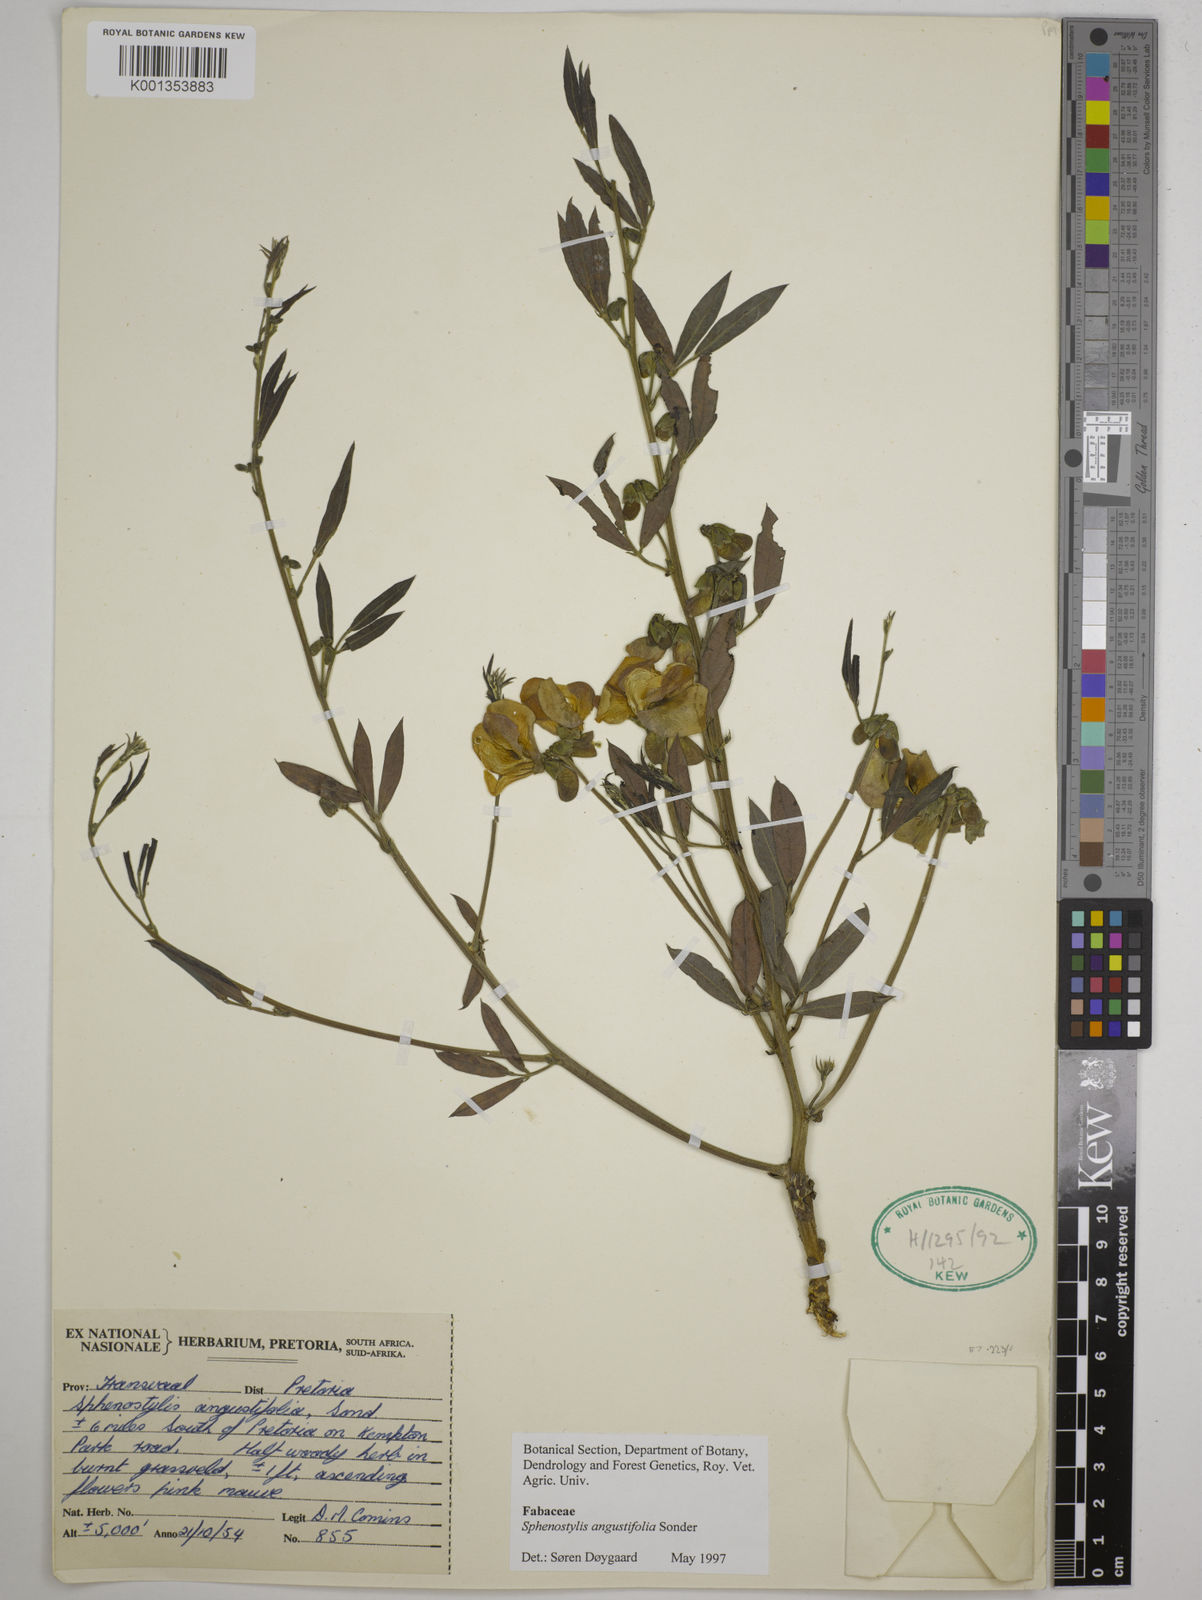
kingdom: Plantae
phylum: Tracheophyta
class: Magnoliopsida
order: Fabales
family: Fabaceae
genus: Sphenostylis
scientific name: Sphenostylis angustifolia
